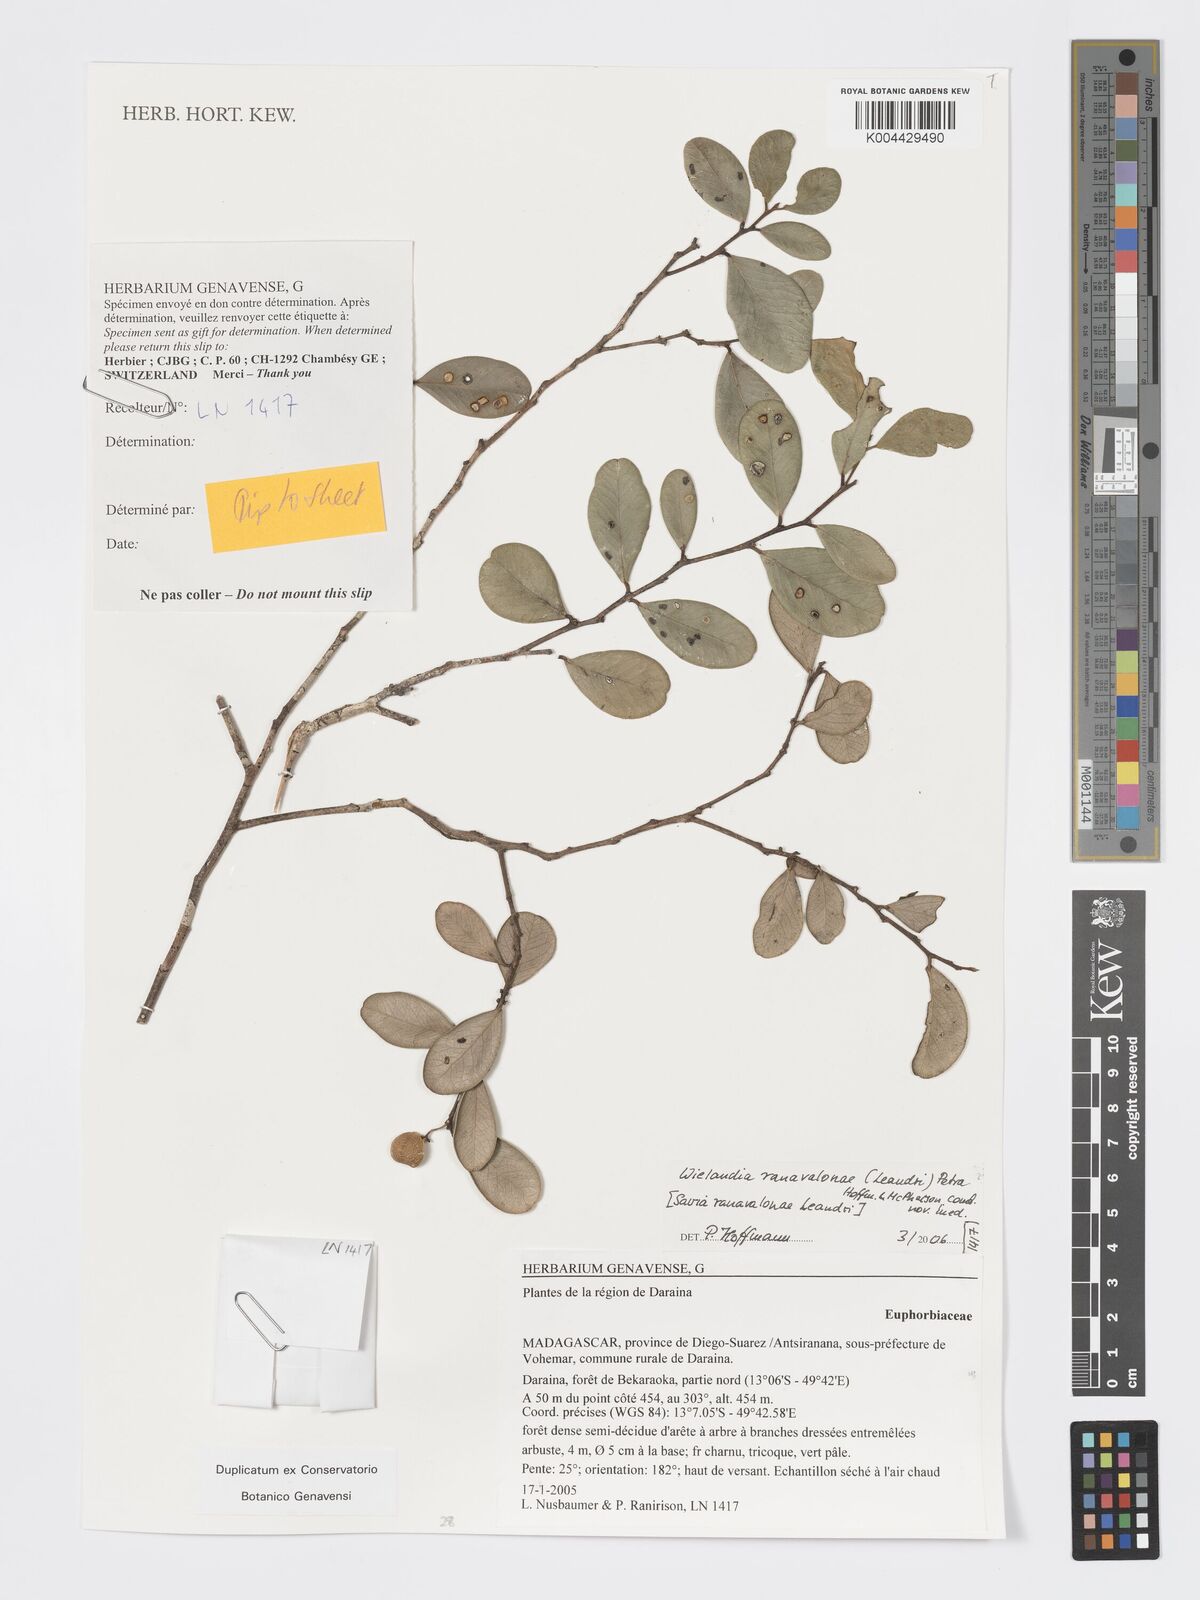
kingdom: Plantae
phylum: Tracheophyta
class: Magnoliopsida
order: Malpighiales
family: Phyllanthaceae
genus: Wielandia
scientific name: Wielandia ranavalonae
